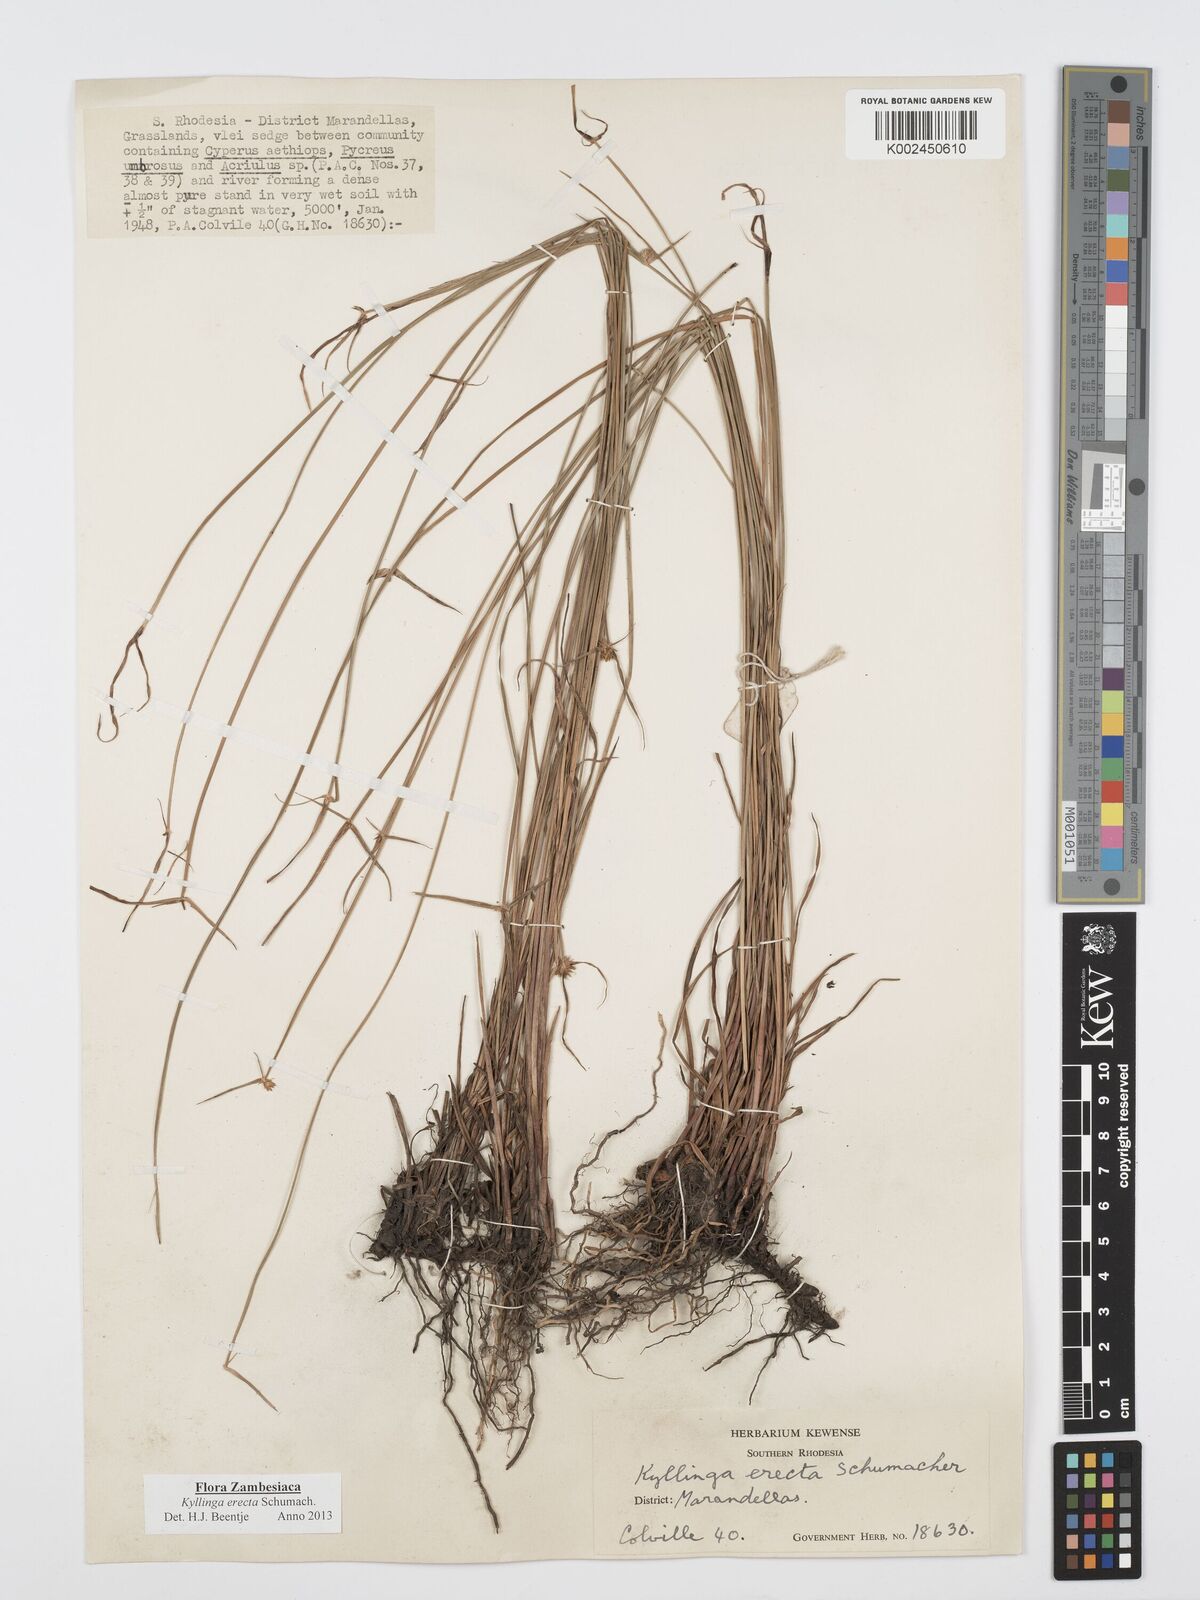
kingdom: Plantae
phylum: Tracheophyta
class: Liliopsida
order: Poales
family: Cyperaceae
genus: Cyperus
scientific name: Cyperus erectus
